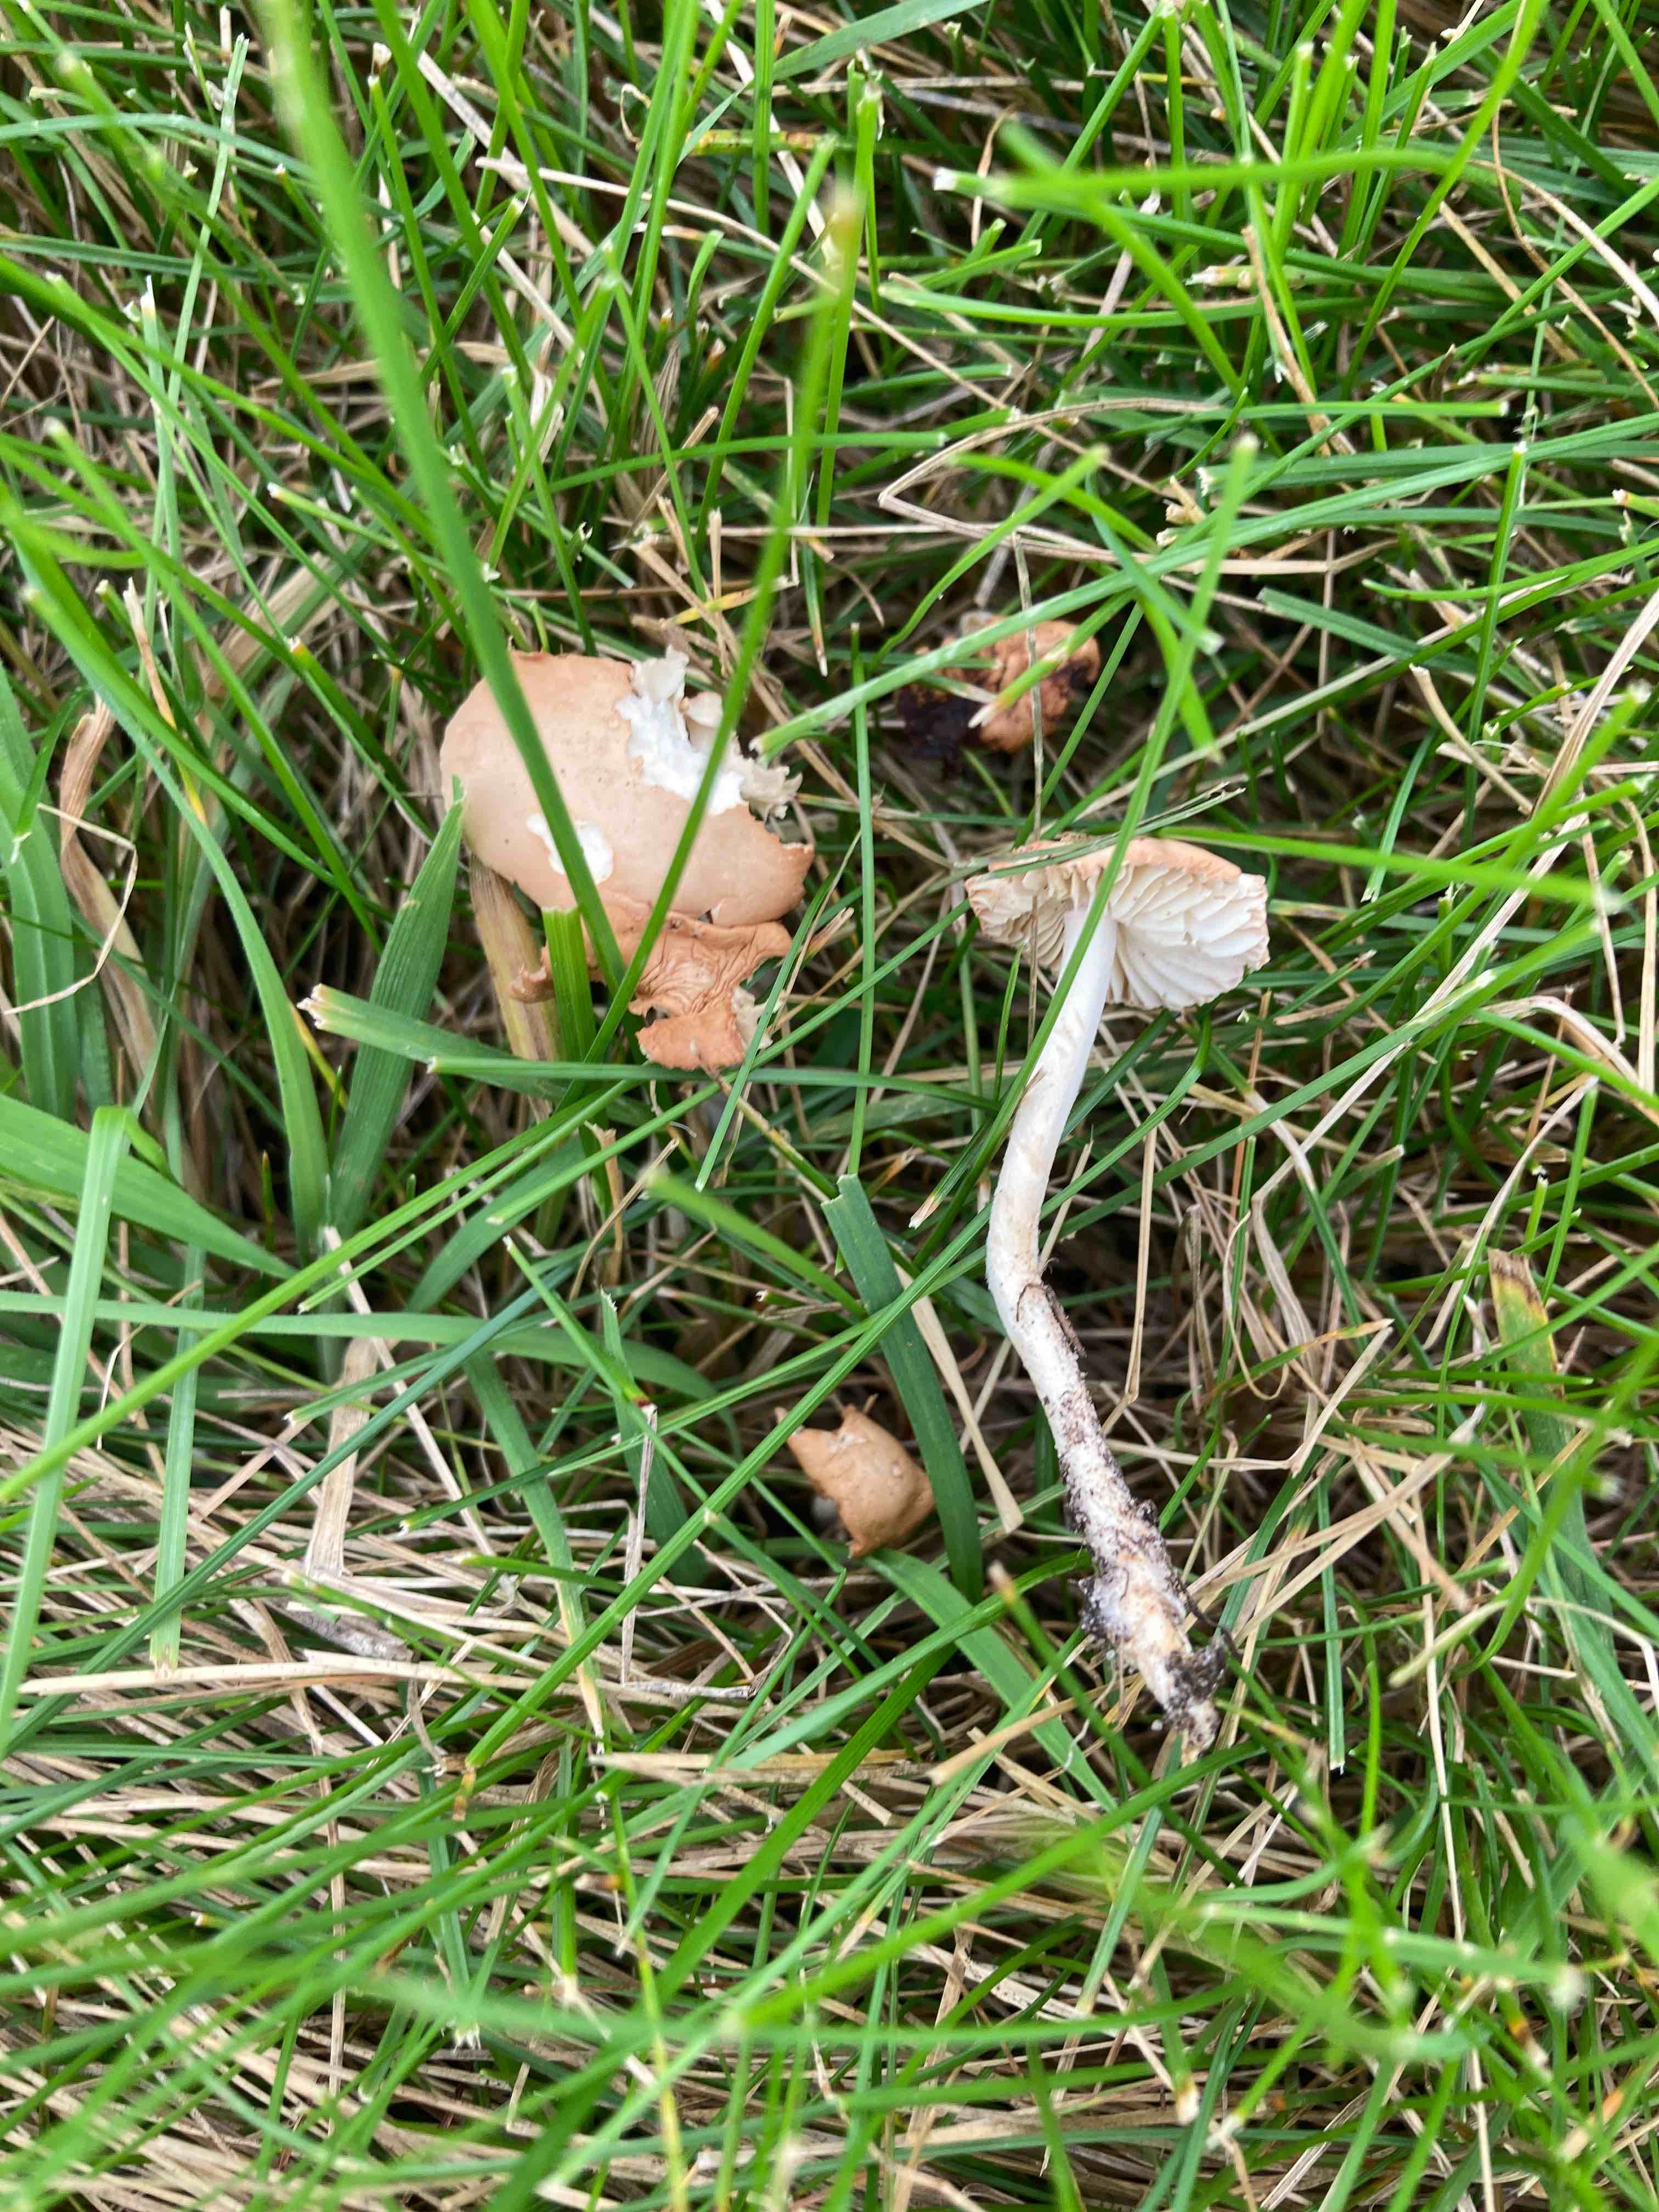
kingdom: Fungi
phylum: Basidiomycota
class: Agaricomycetes
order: Agaricales
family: Marasmiaceae
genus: Marasmius
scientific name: Marasmius oreades
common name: elledans-bruskhat
